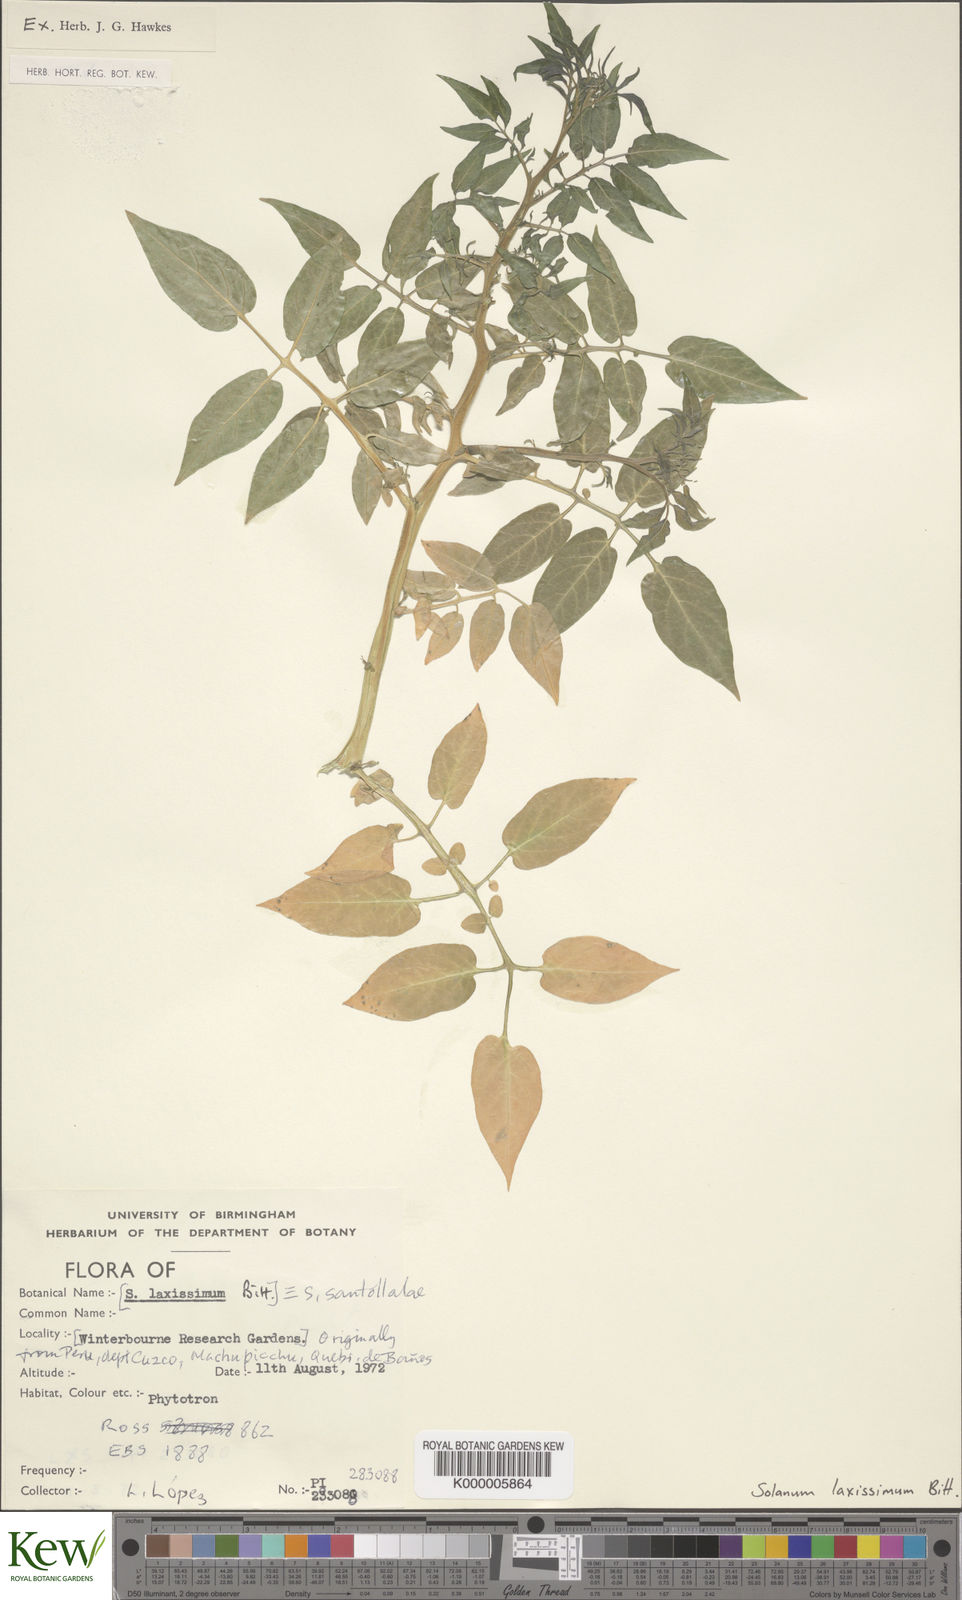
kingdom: Plantae
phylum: Tracheophyta
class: Magnoliopsida
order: Solanales
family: Solanaceae
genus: Solanum
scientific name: Solanum laxissimum
